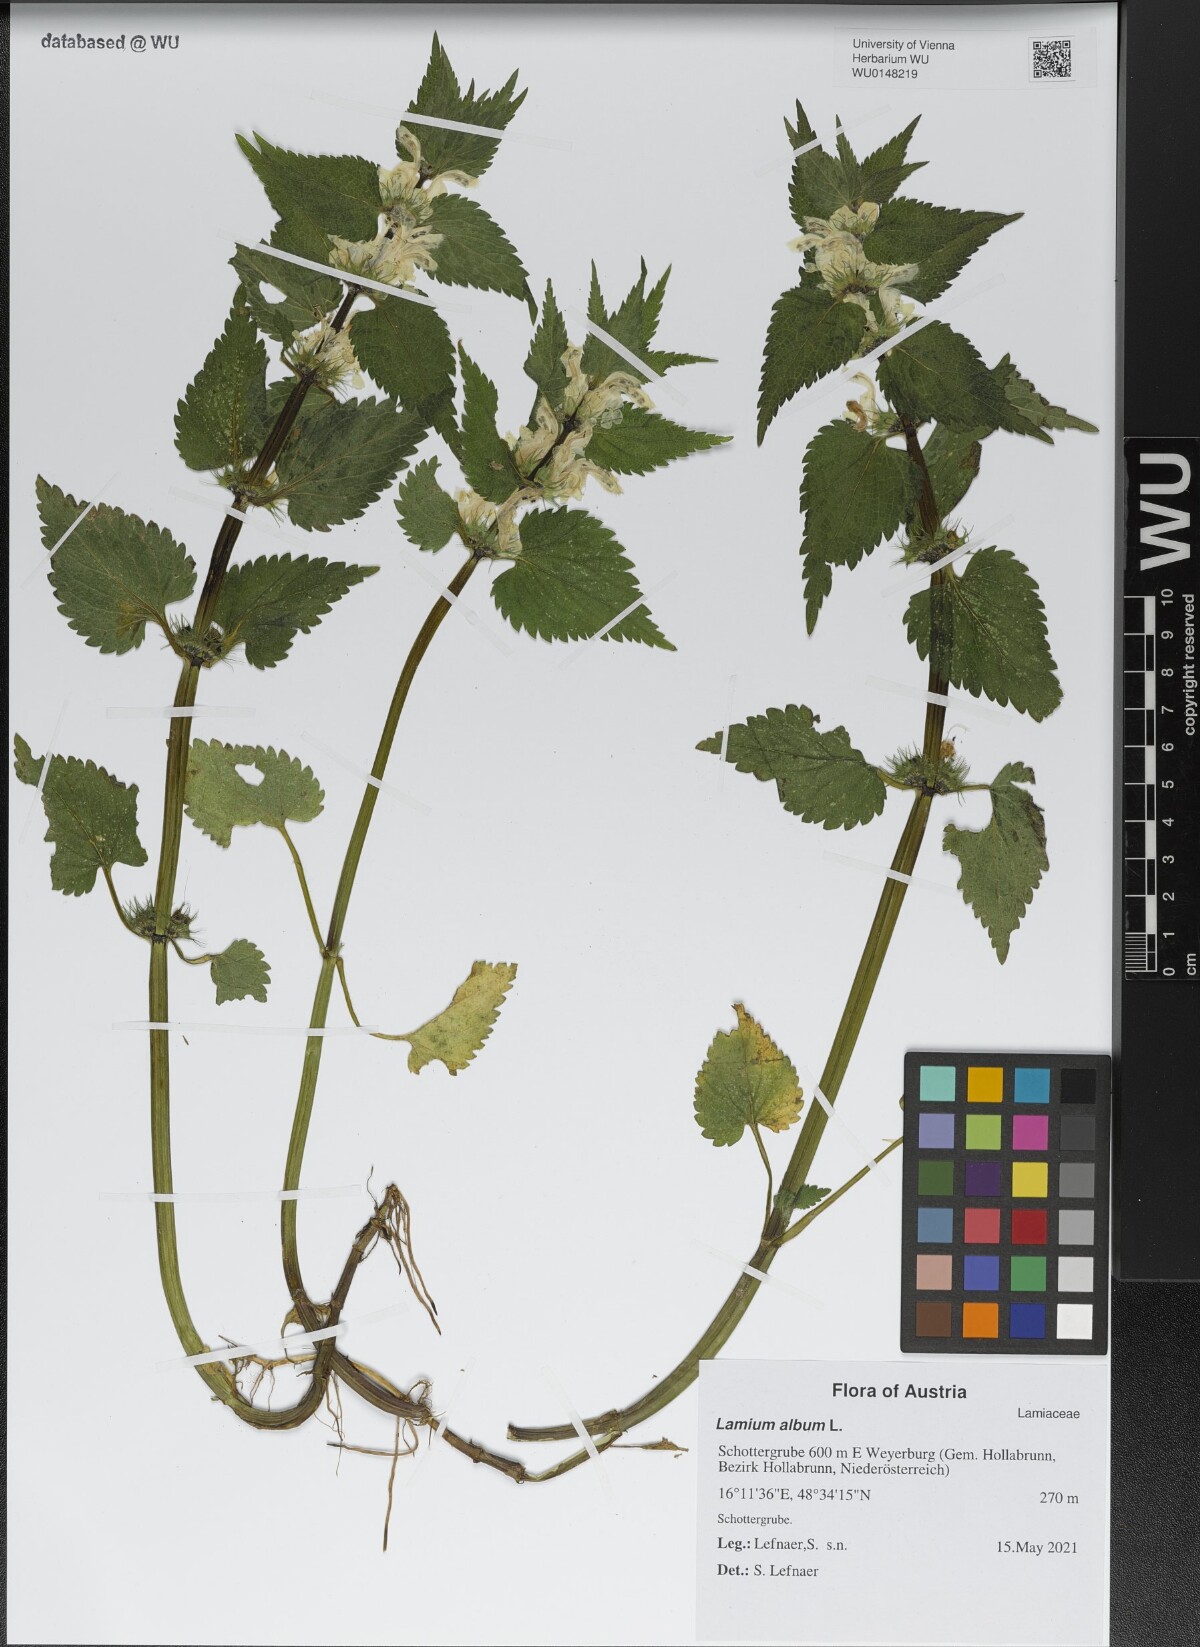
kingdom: Plantae
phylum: Tracheophyta
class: Magnoliopsida
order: Lamiales
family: Lamiaceae
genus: Lamium
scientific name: Lamium album
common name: White dead-nettle
